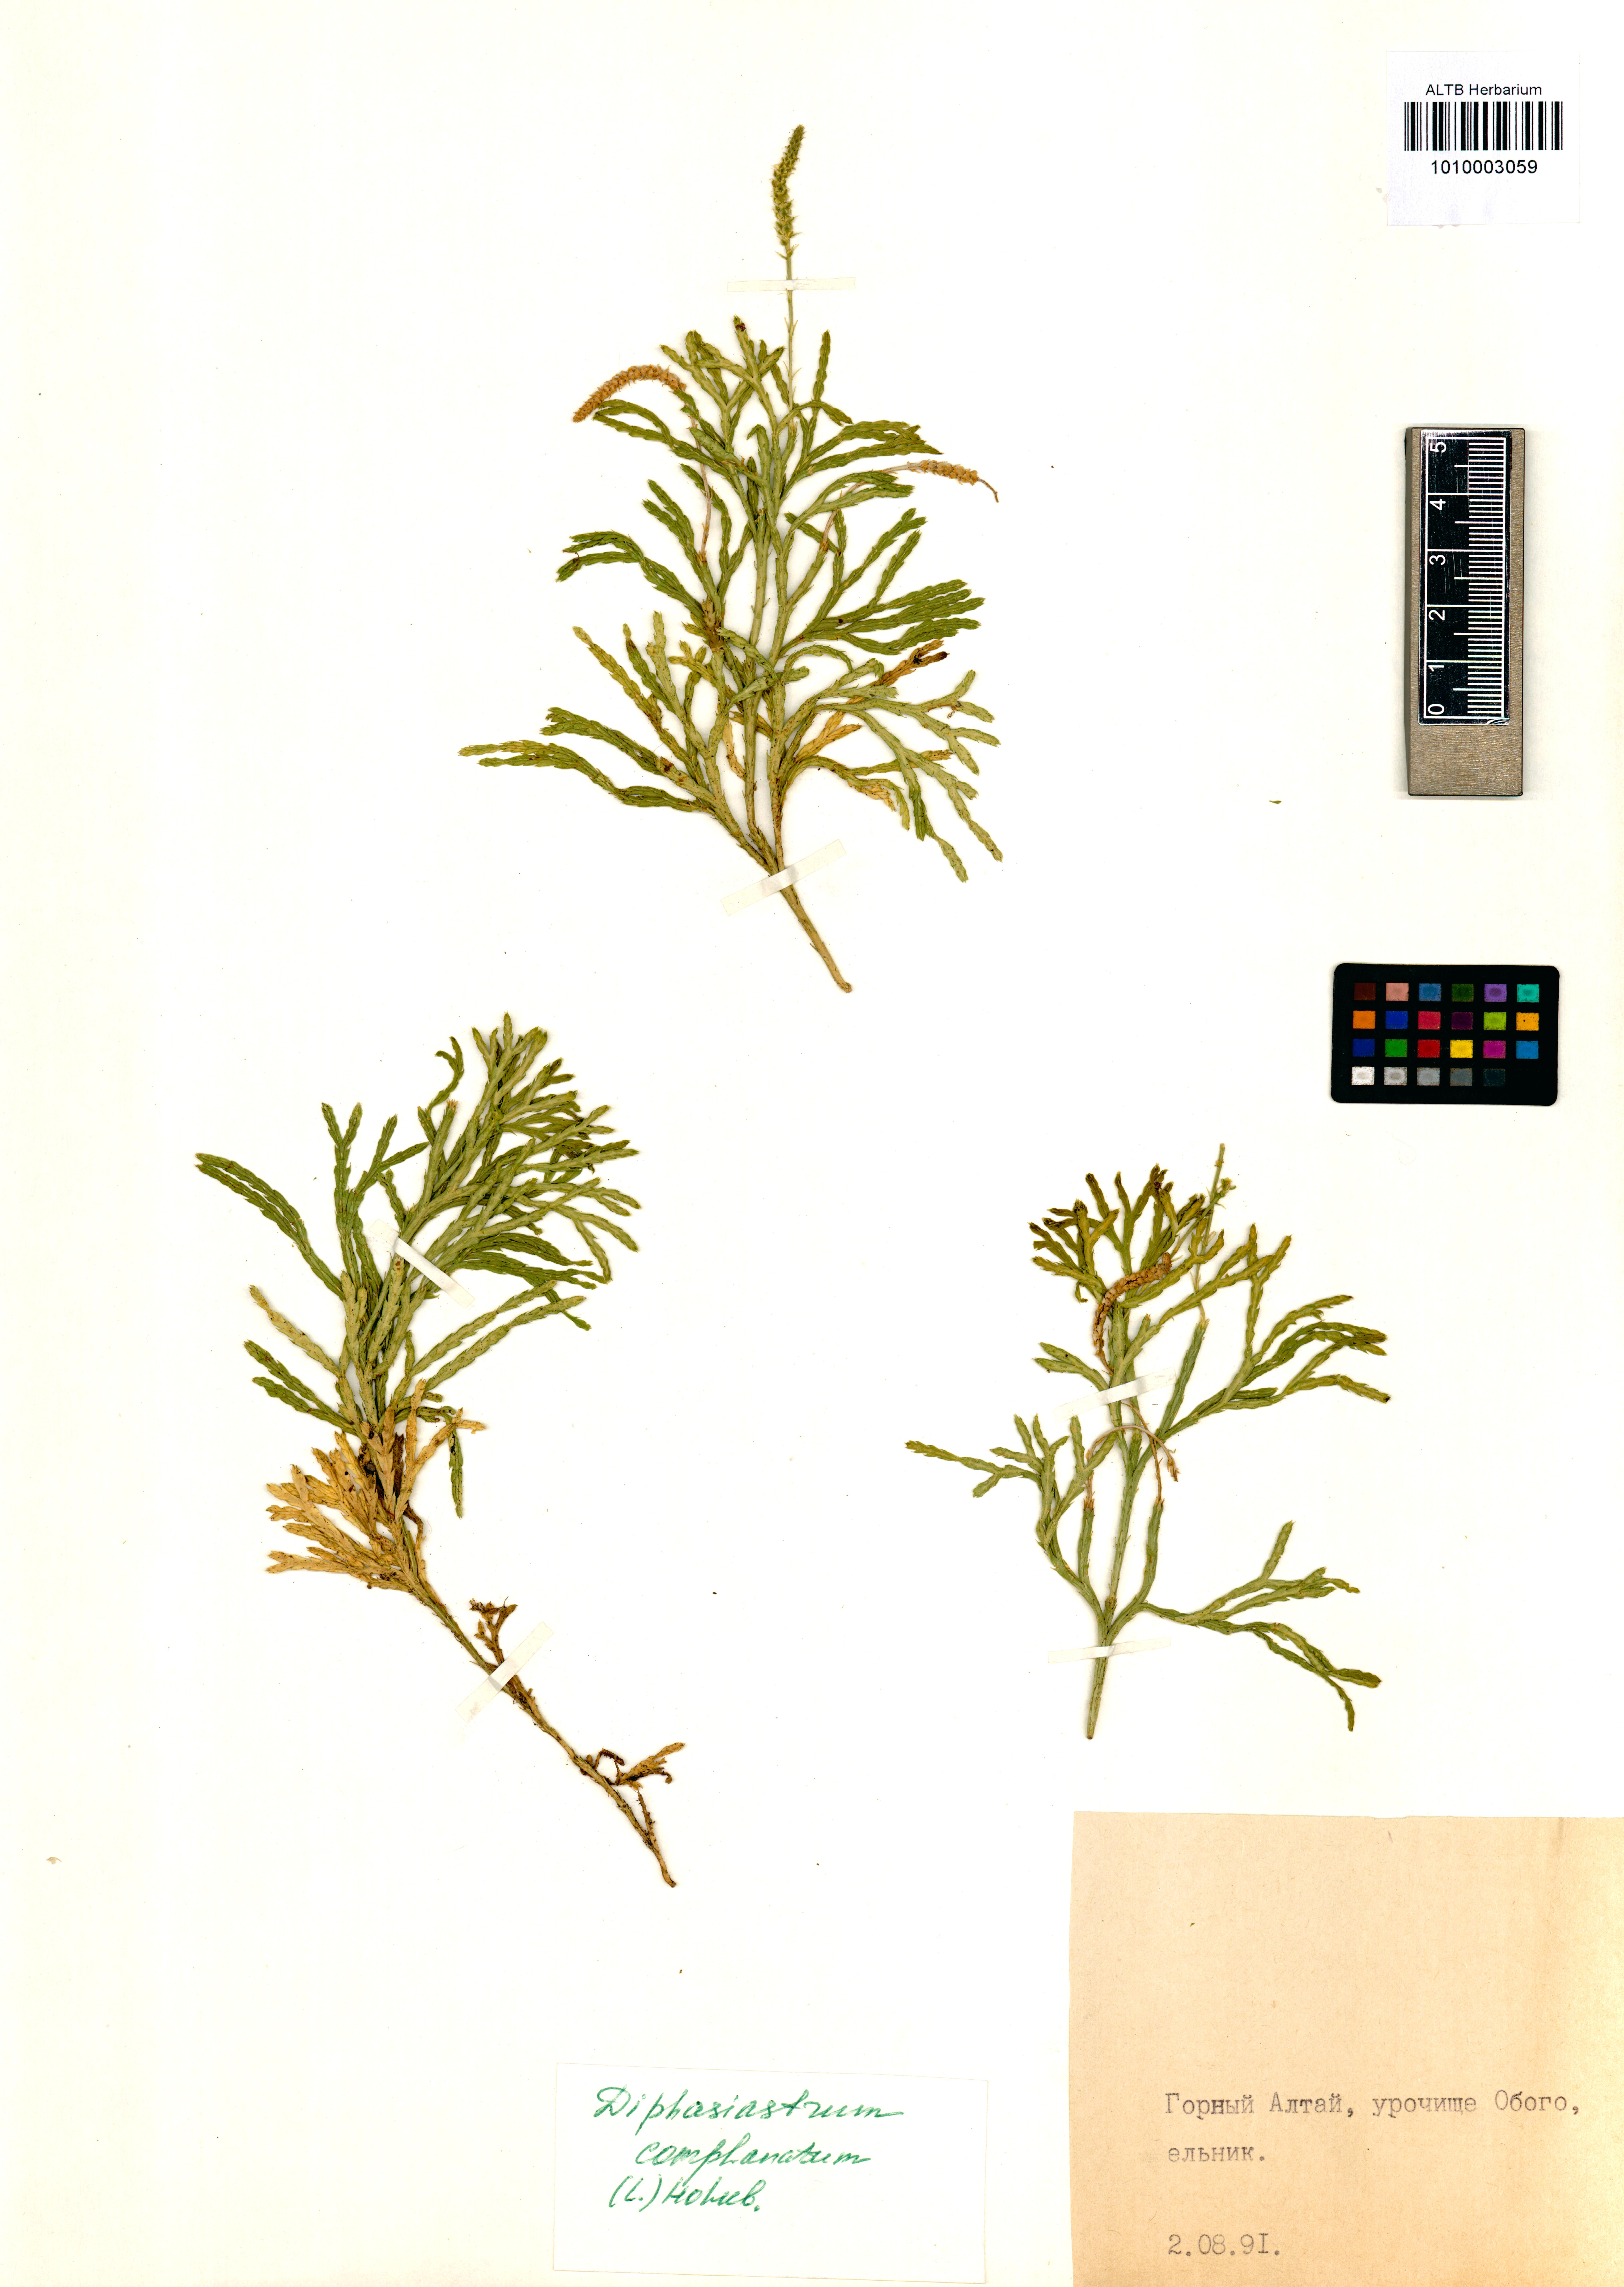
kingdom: Plantae
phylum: Tracheophyta
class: Lycopodiopsida
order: Lycopodiales
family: Lycopodiaceae
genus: Diphasiastrum
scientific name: Diphasiastrum complanatum
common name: Northern running-pine
